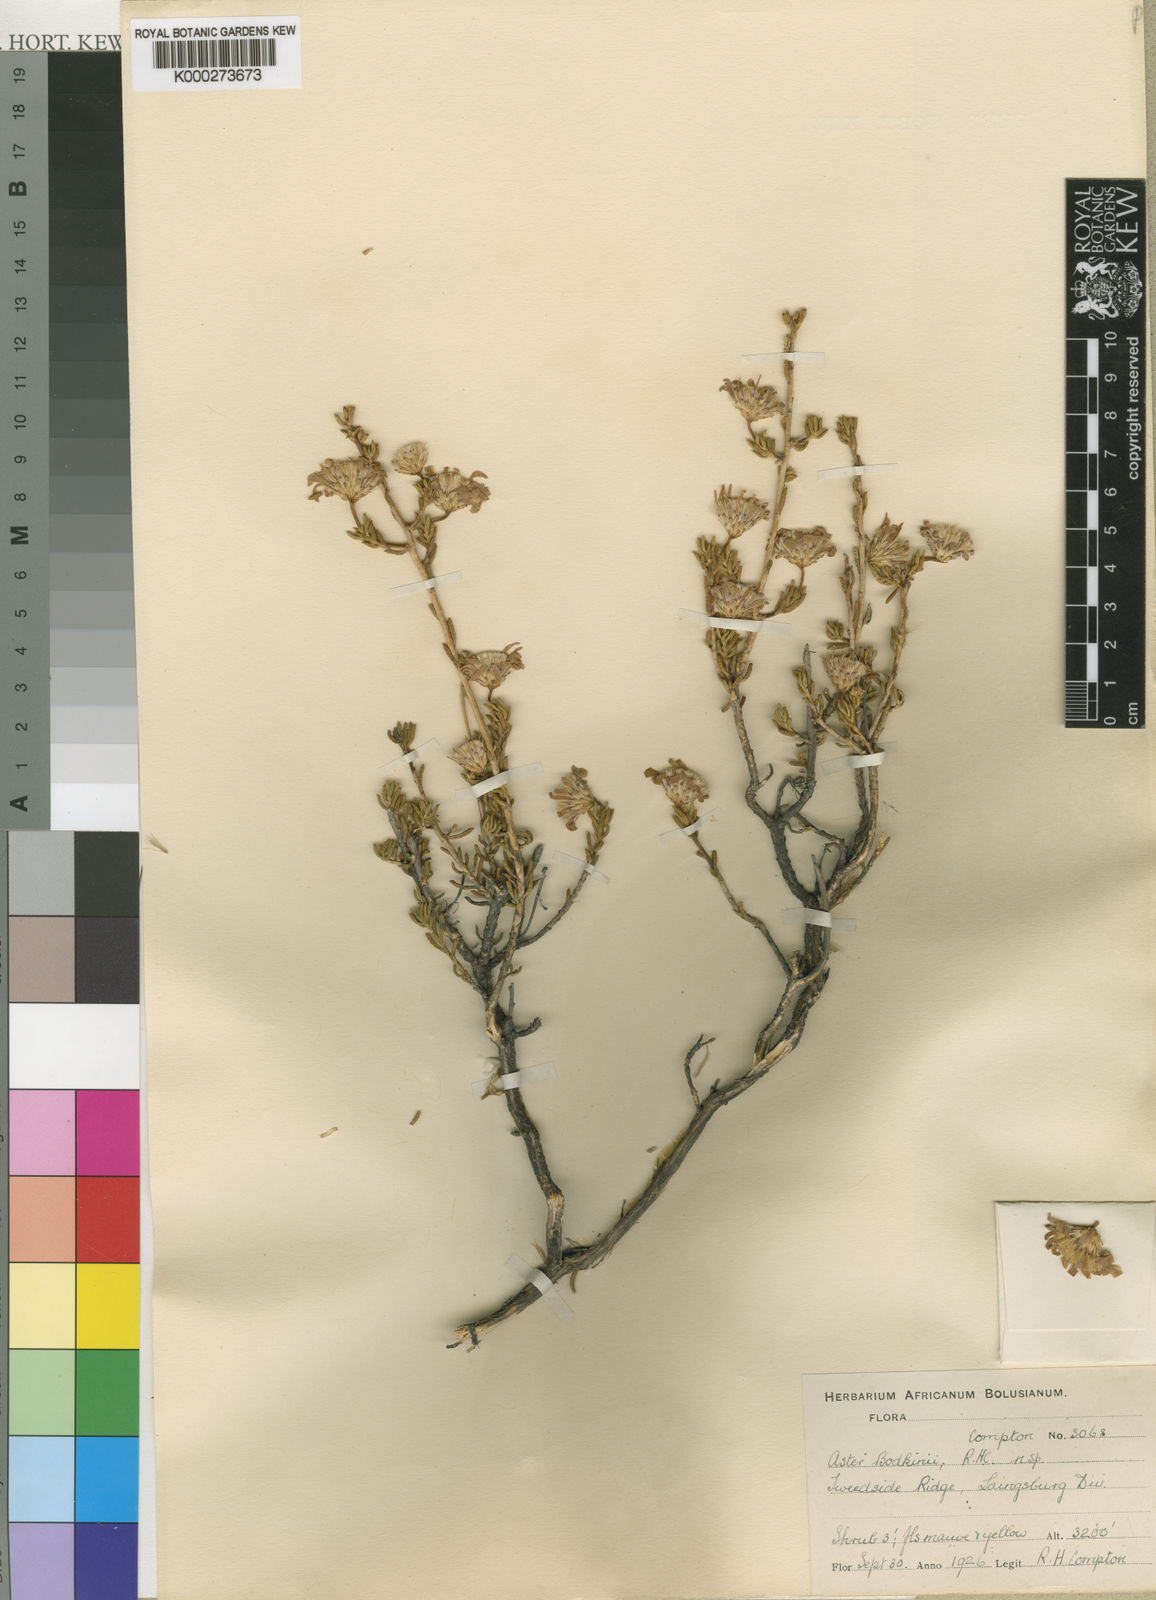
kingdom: Plantae
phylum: Tracheophyta
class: Magnoliopsida
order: Asterales
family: Asteraceae
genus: Felicia
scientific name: Felicia filifolia
